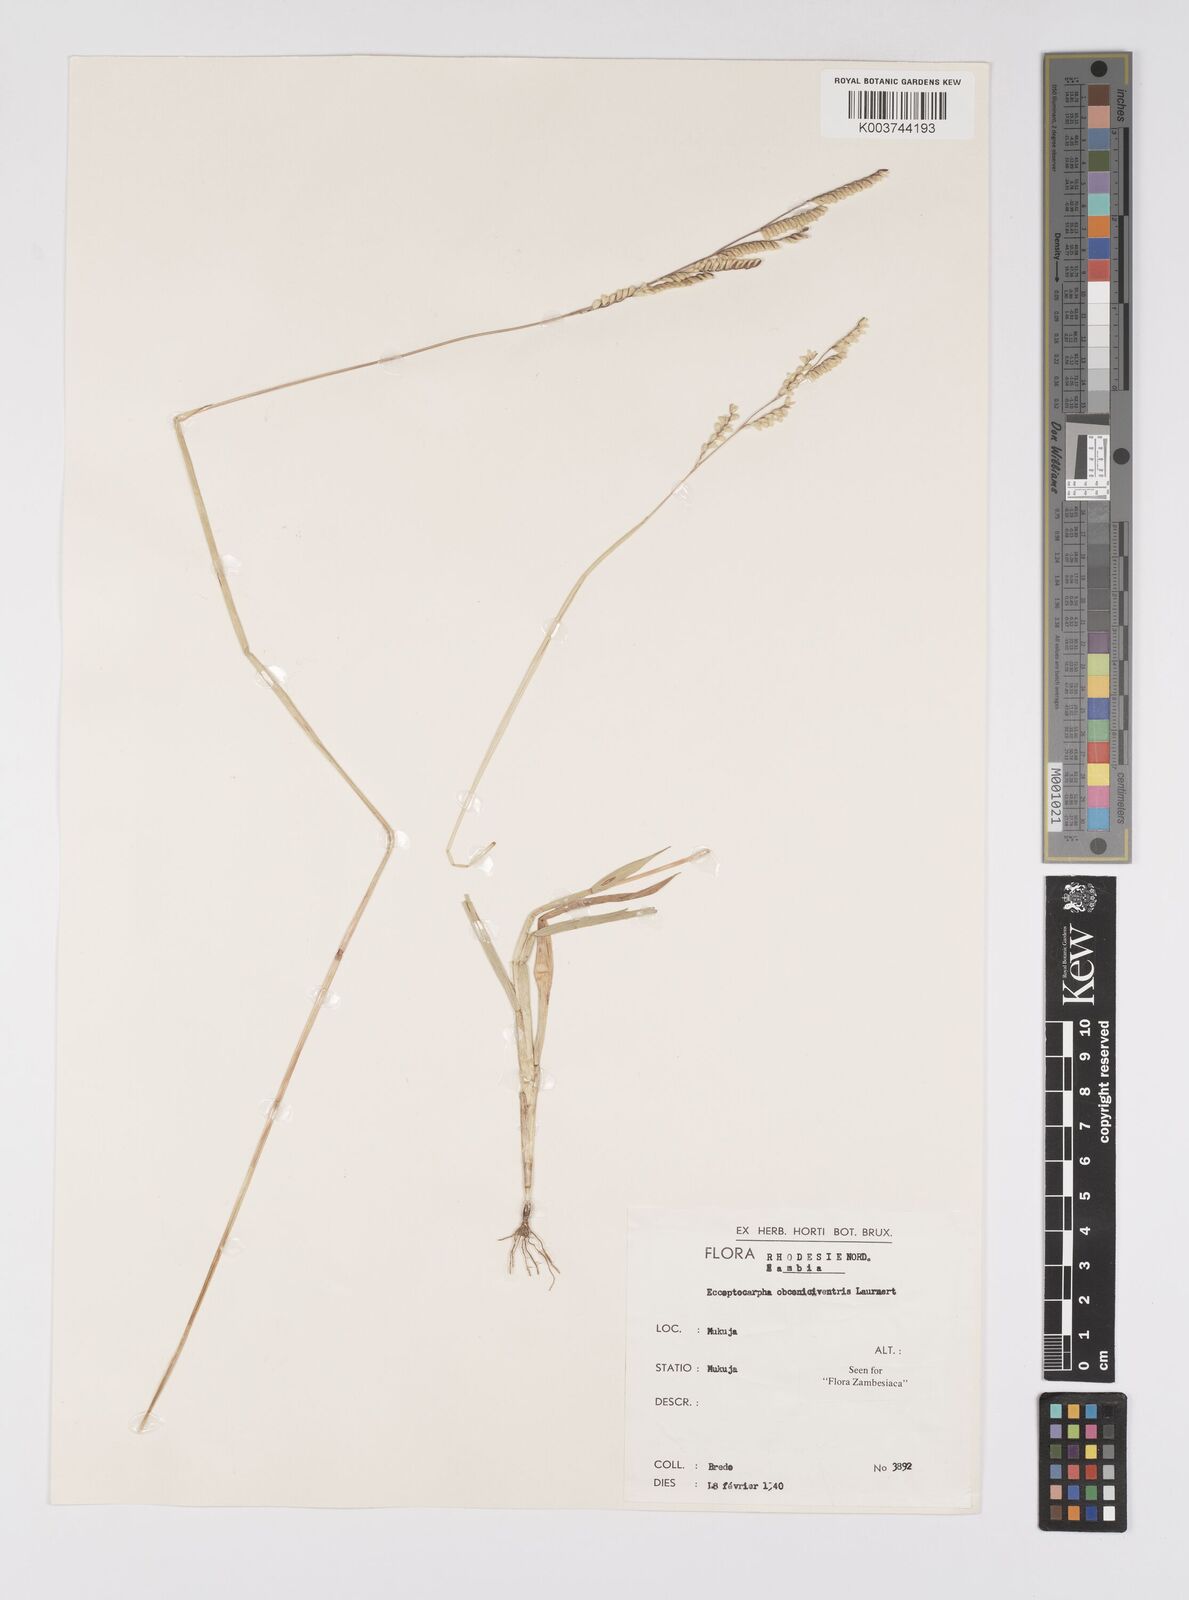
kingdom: Plantae
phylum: Tracheophyta
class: Liliopsida
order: Poales
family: Poaceae
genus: Eccoptocarpha
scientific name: Eccoptocarpha obconiciventris
